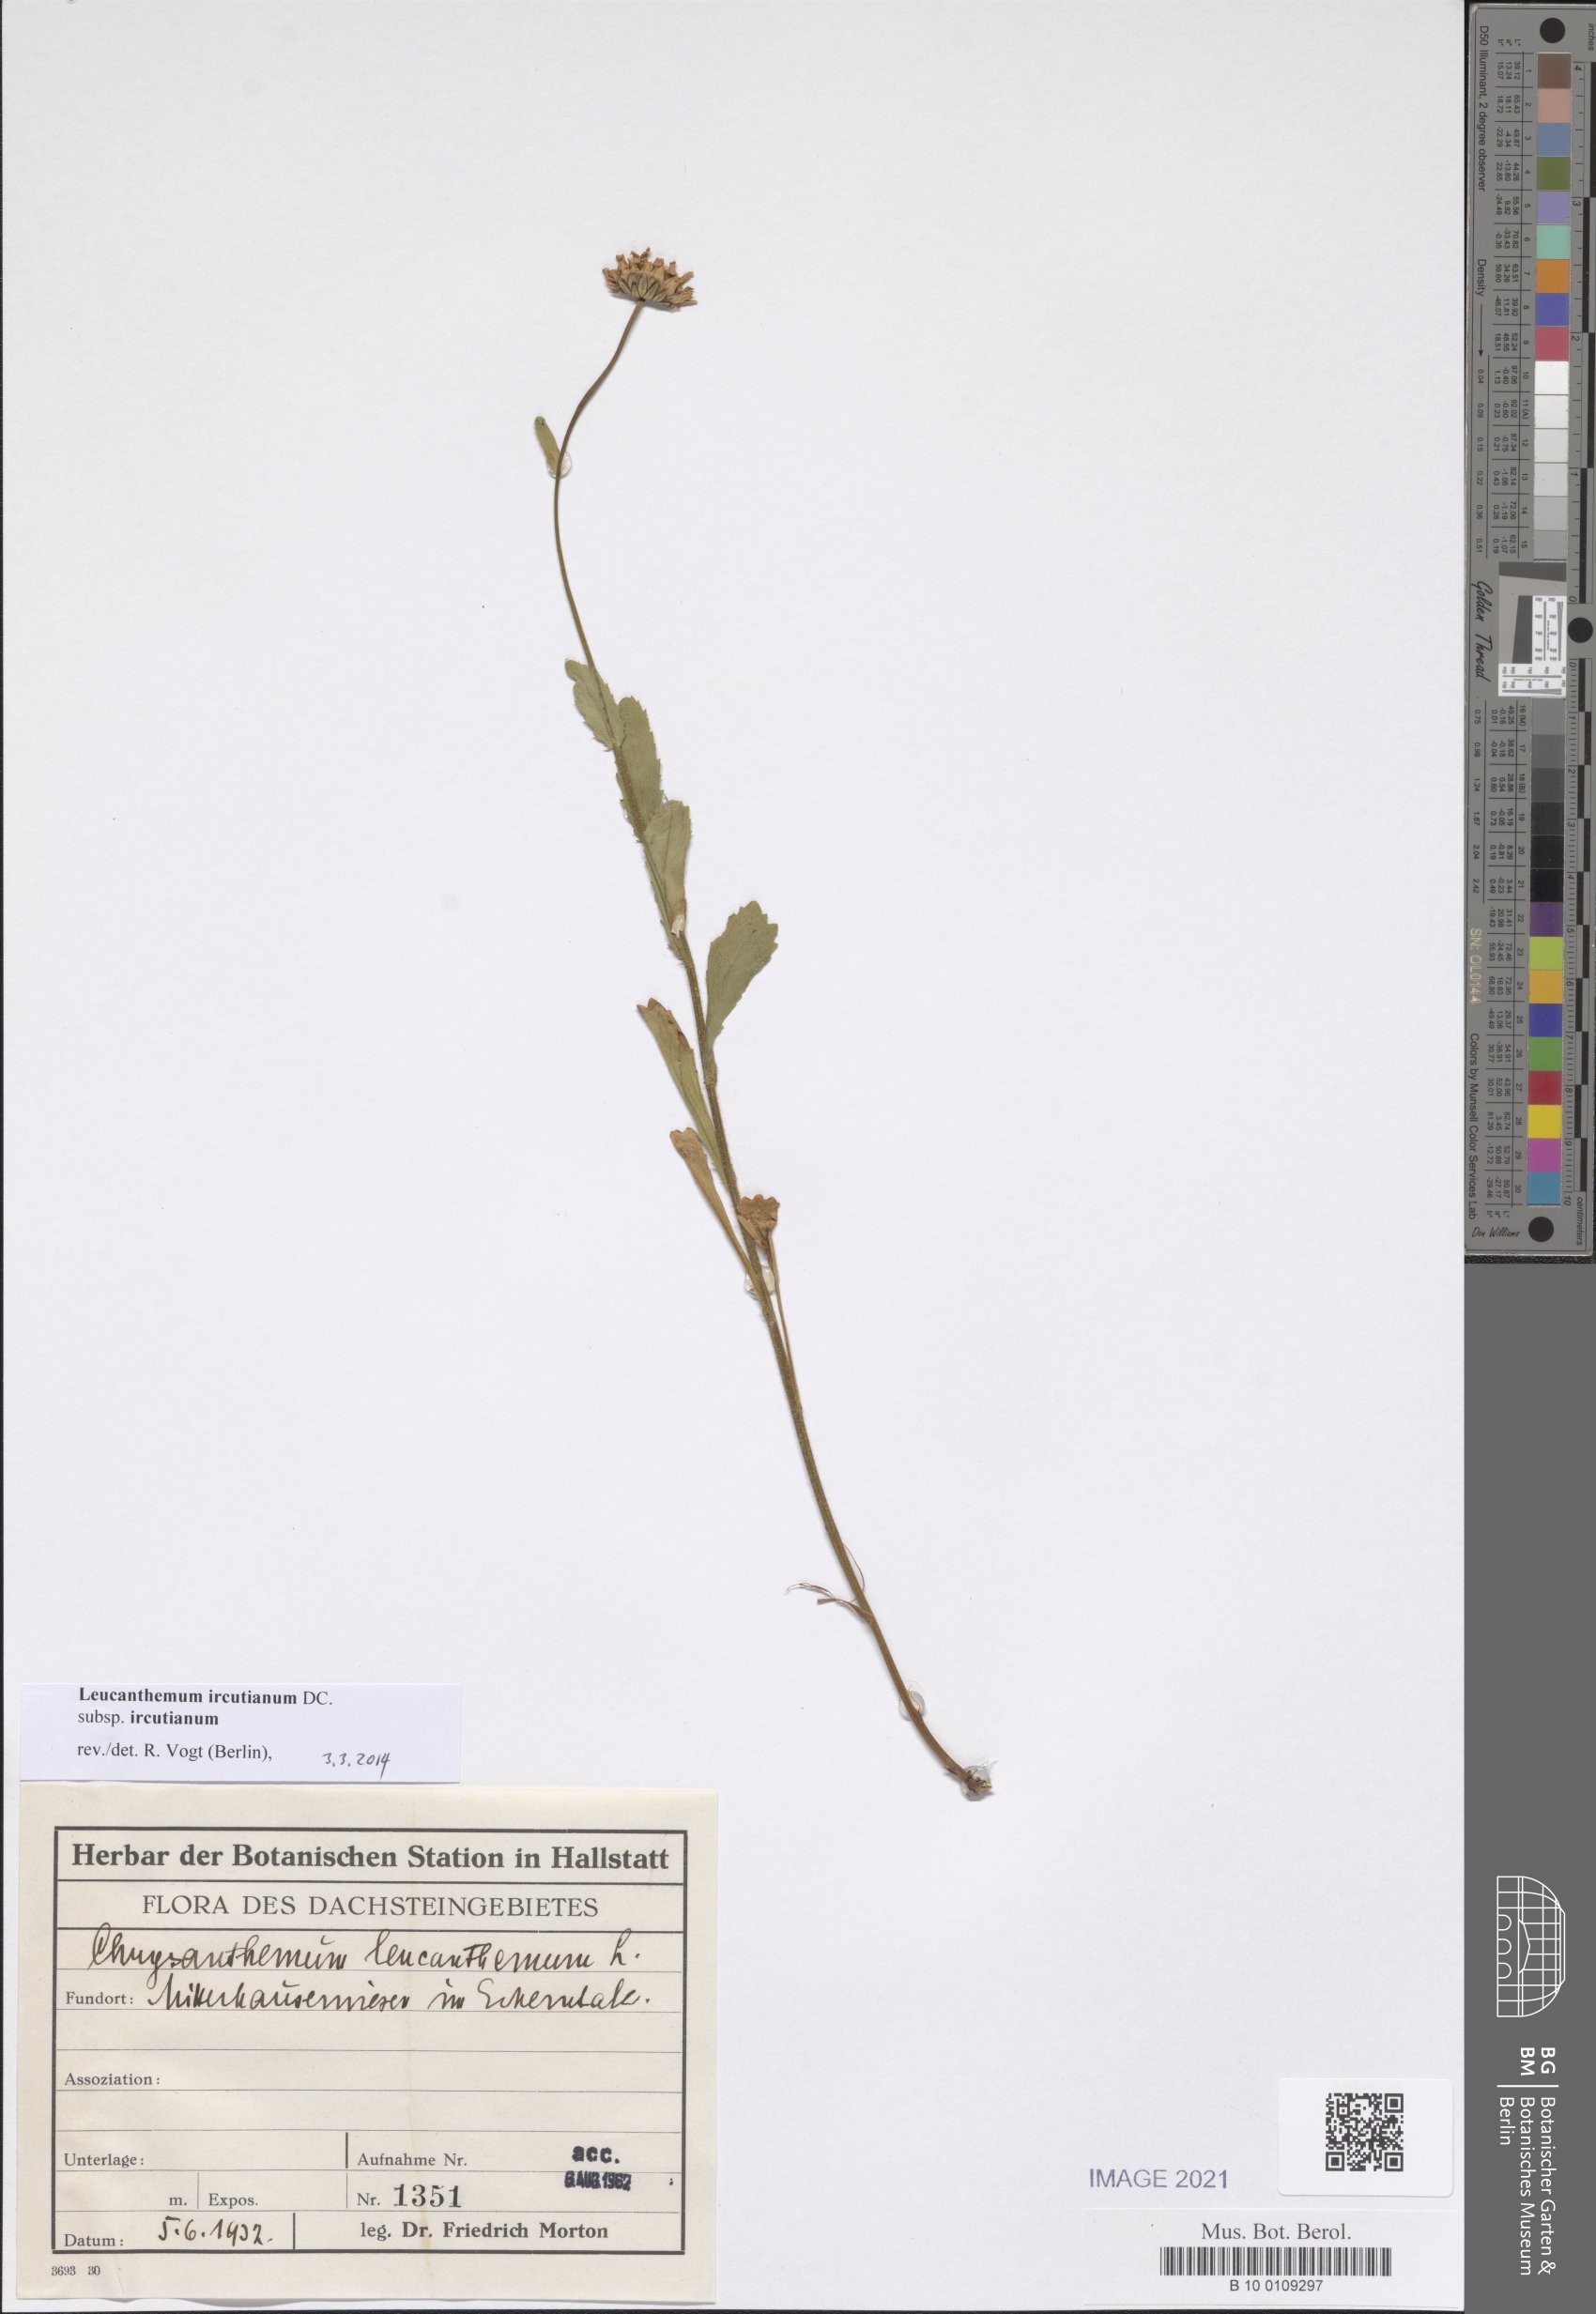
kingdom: Plantae
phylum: Tracheophyta
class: Magnoliopsida
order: Asterales
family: Asteraceae
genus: Leucanthemum
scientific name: Leucanthemum ircutianum
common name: Daisy
